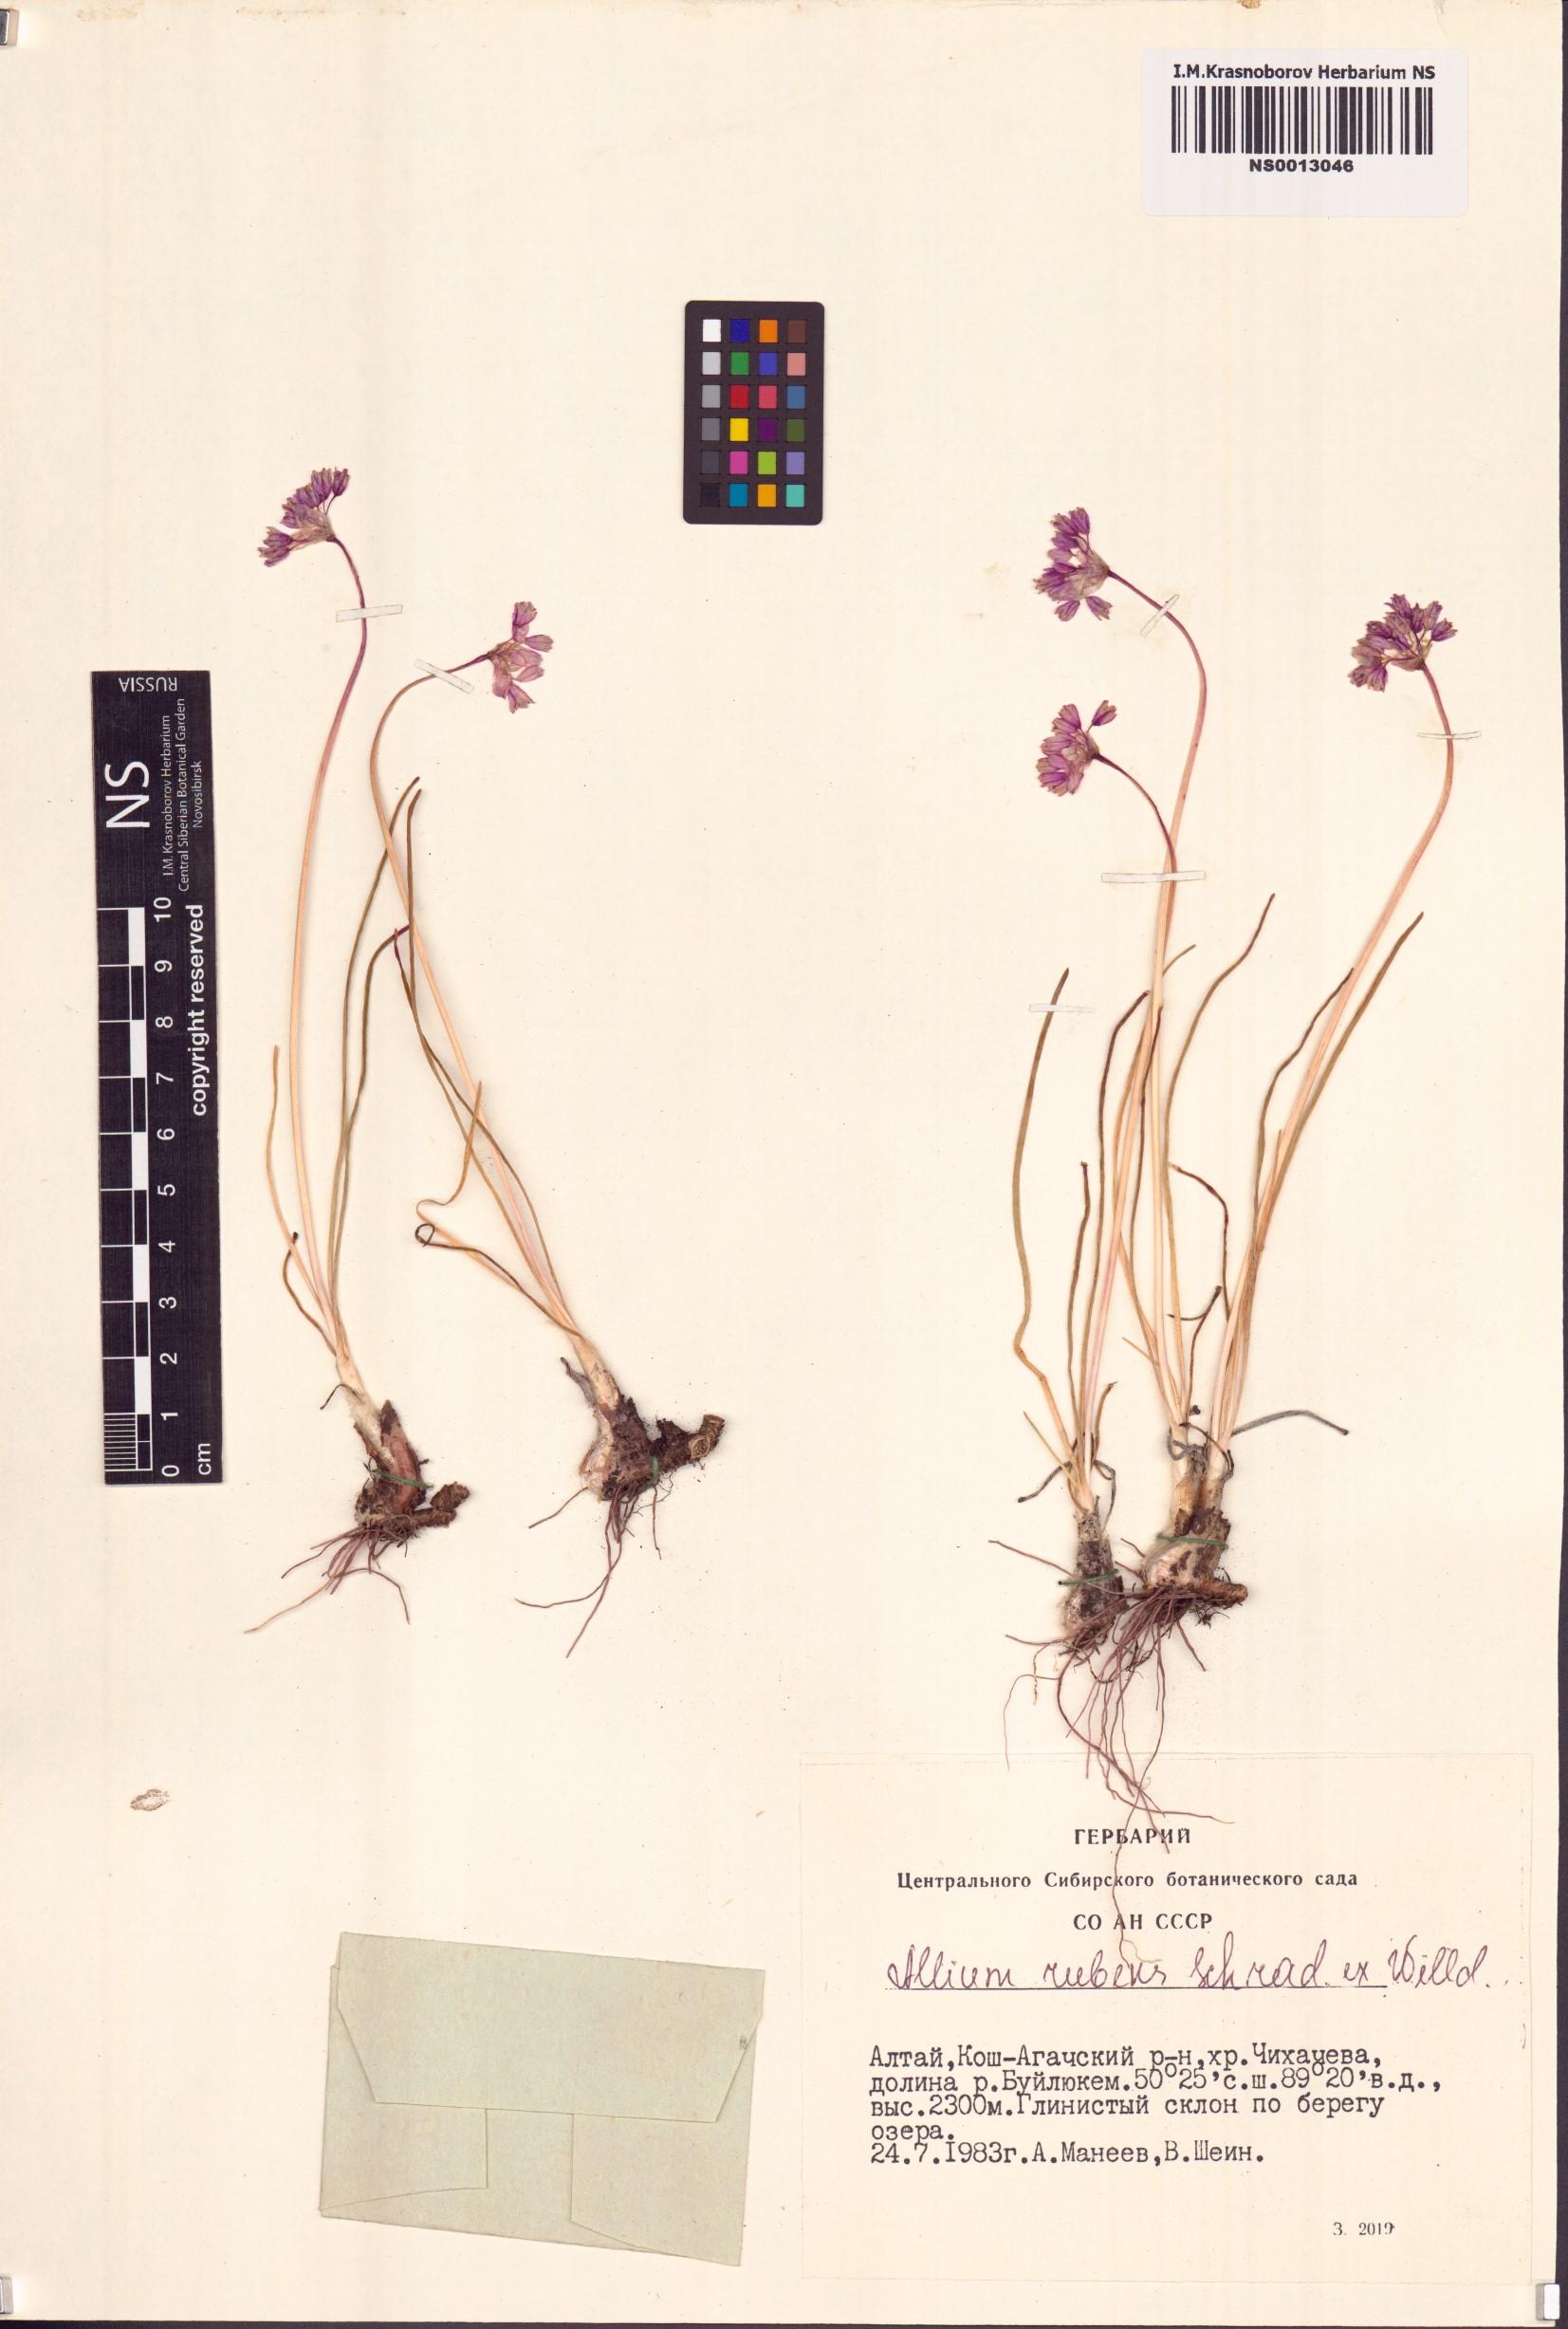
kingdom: Plantae
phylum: Tracheophyta
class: Liliopsida
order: Asparagales
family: Amaryllidaceae
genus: Allium
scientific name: Allium rubens
